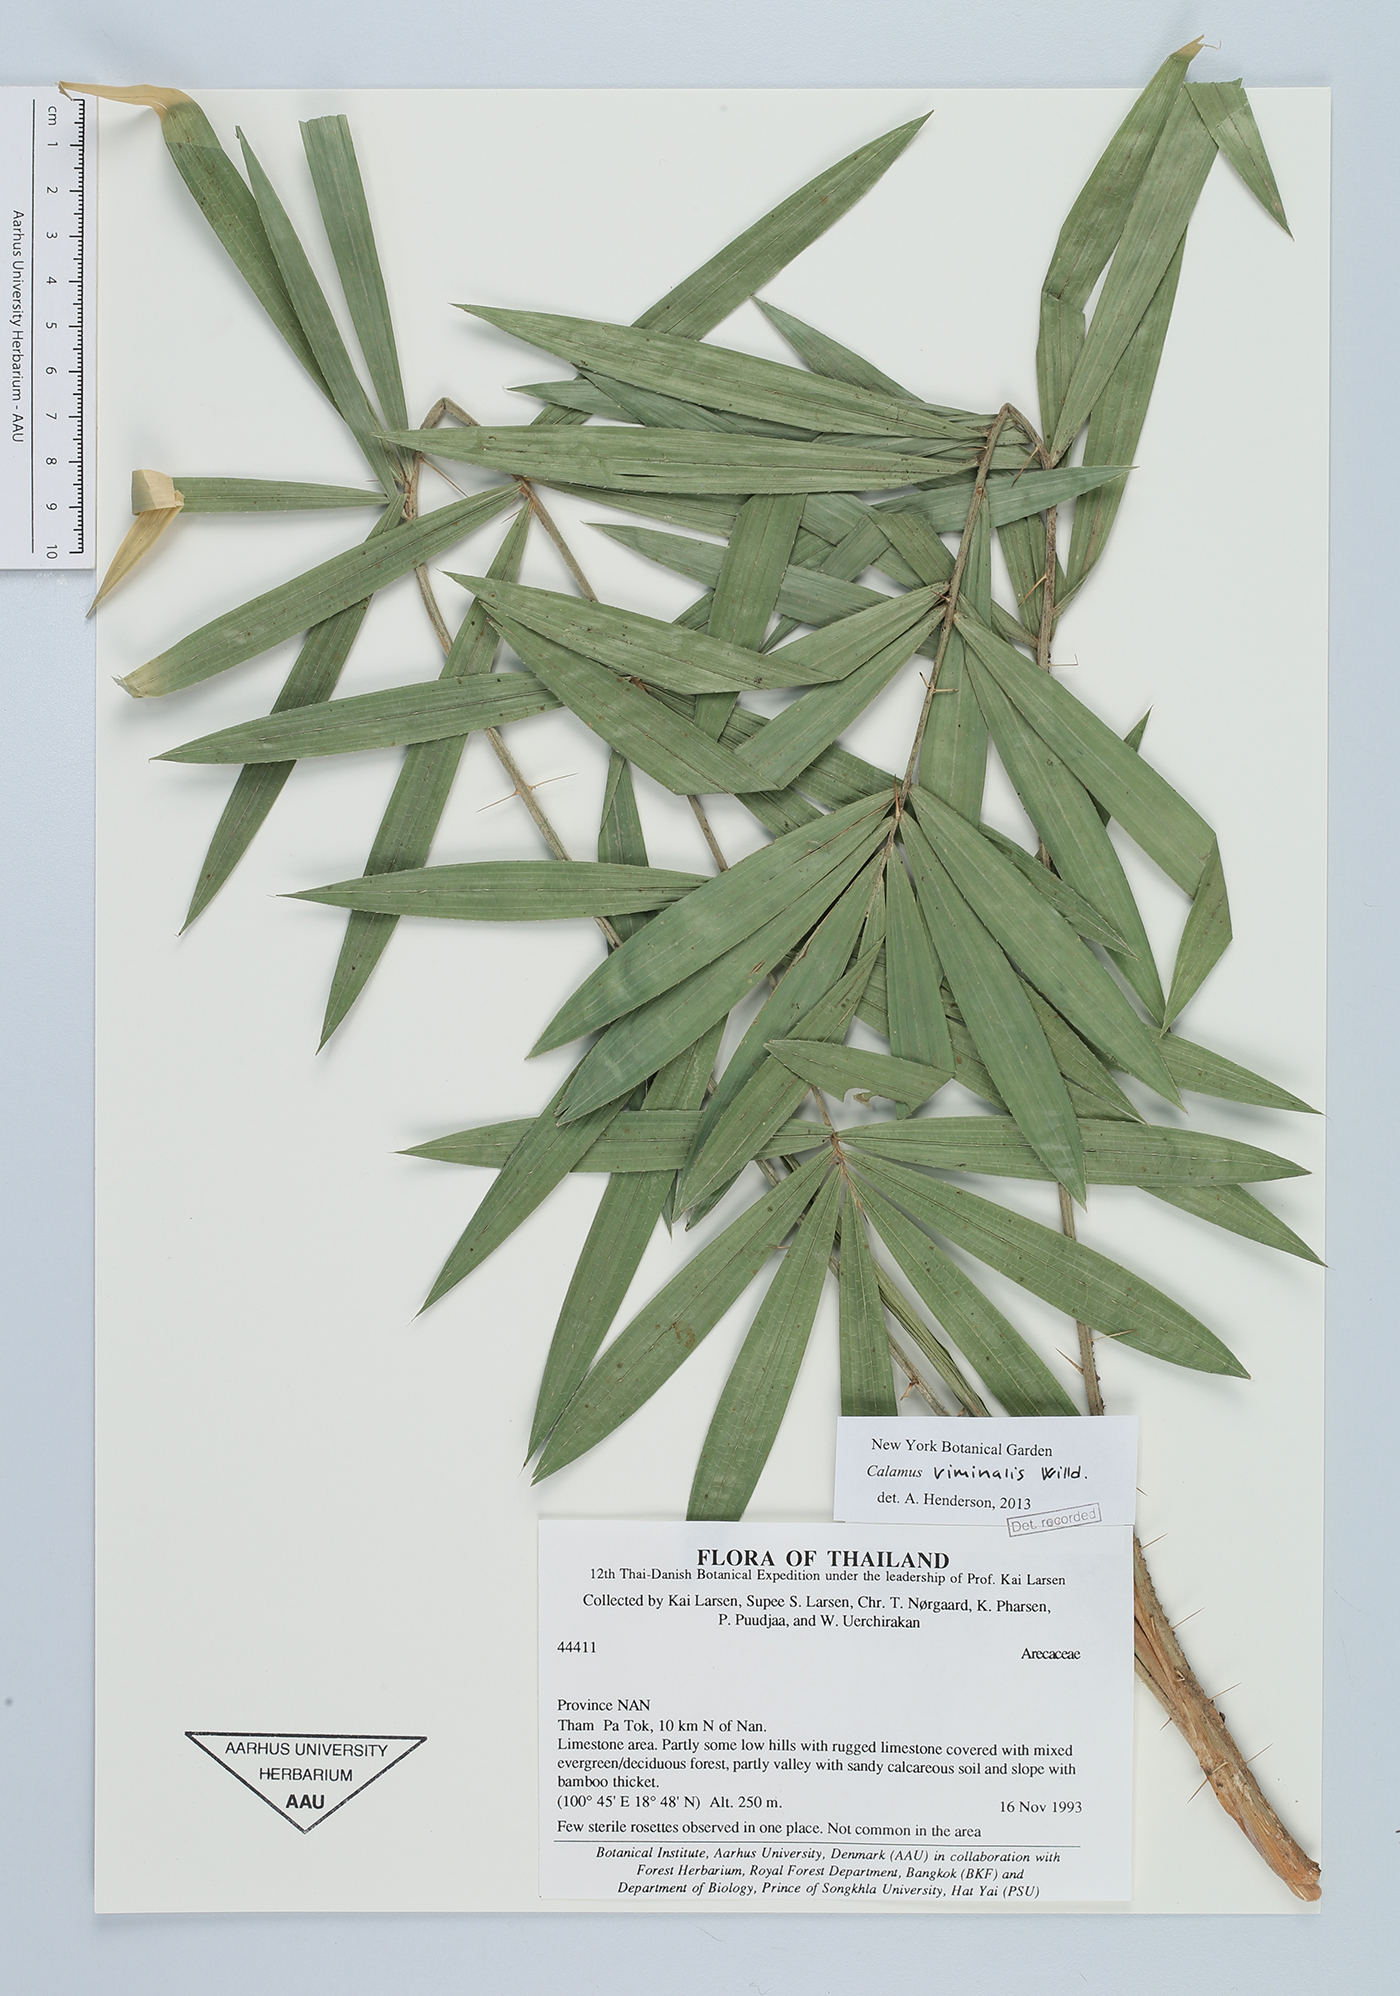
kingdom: Plantae
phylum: Tracheophyta
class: Liliopsida
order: Arecales
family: Arecaceae
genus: Calamus
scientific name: Calamus viminalis
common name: Osier-like rattan palm
